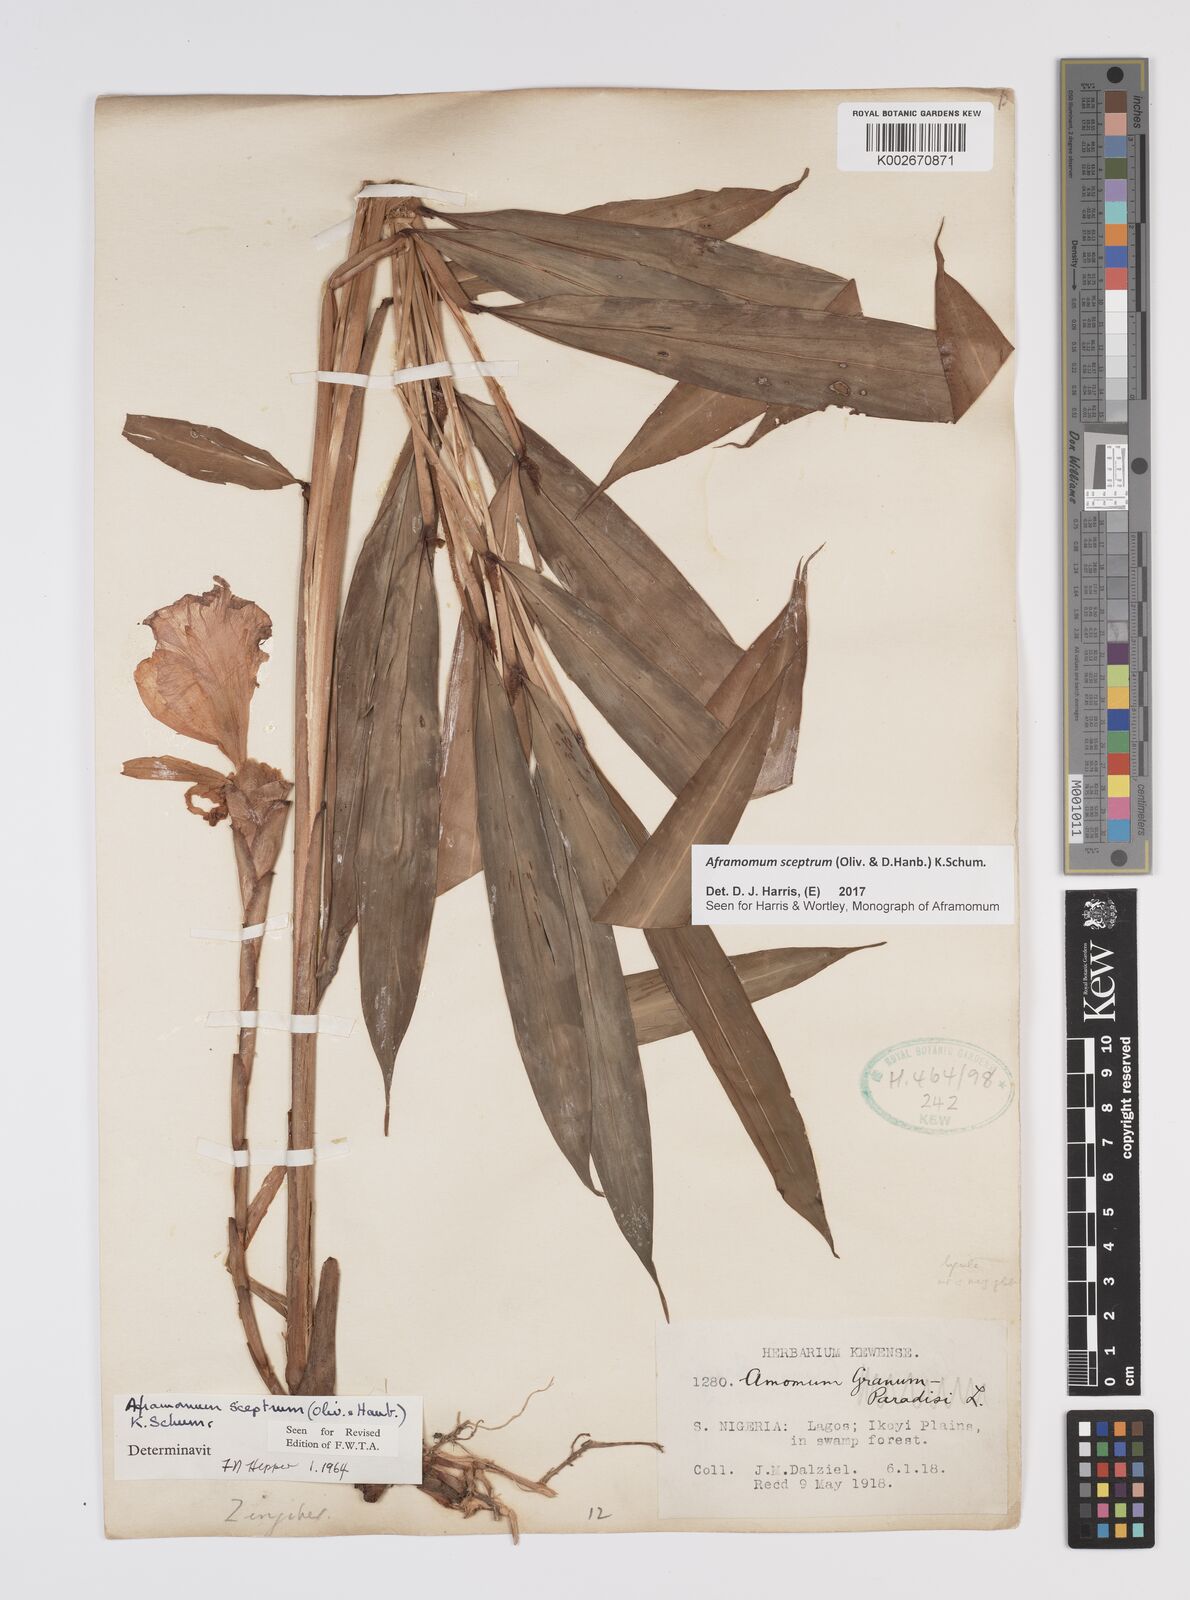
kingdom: Plantae
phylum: Tracheophyta
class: Liliopsida
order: Zingiberales
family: Zingiberaceae
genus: Aframomum
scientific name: Aframomum cereum
